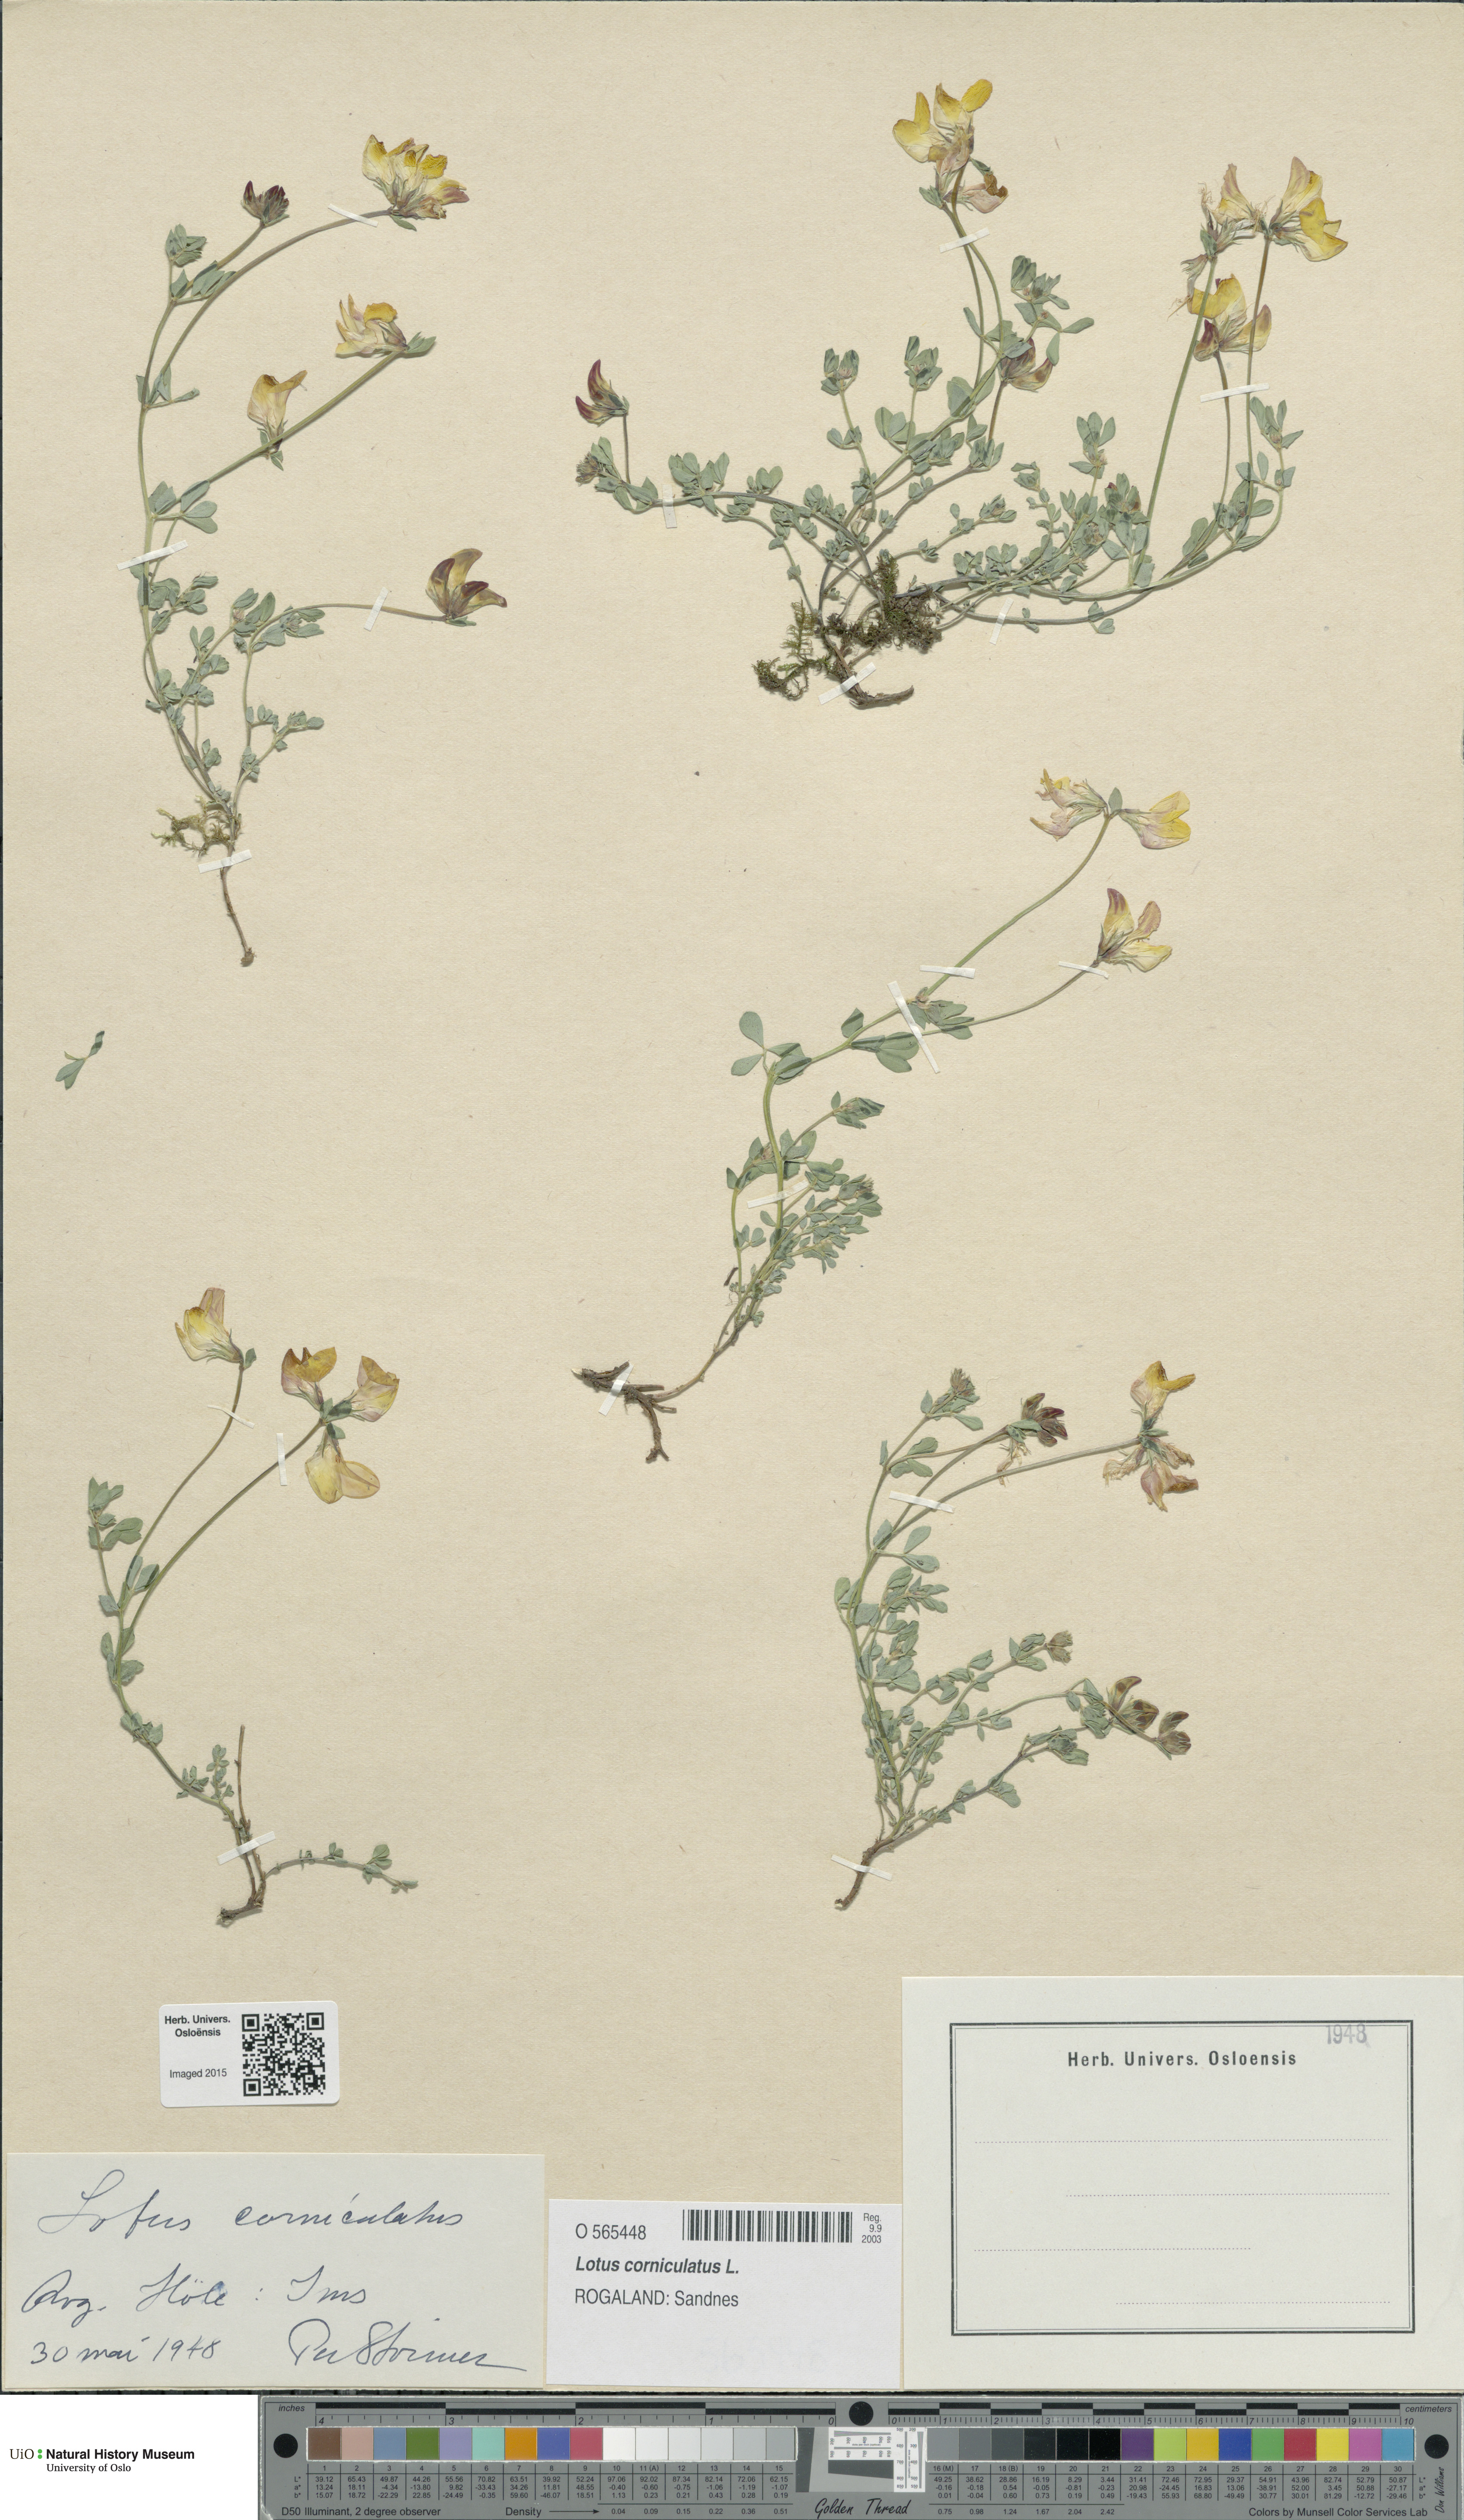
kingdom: Plantae
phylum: Tracheophyta
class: Magnoliopsida
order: Fabales
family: Fabaceae
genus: Lotus
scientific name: Lotus corniculatus
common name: Common bird's-foot-trefoil
